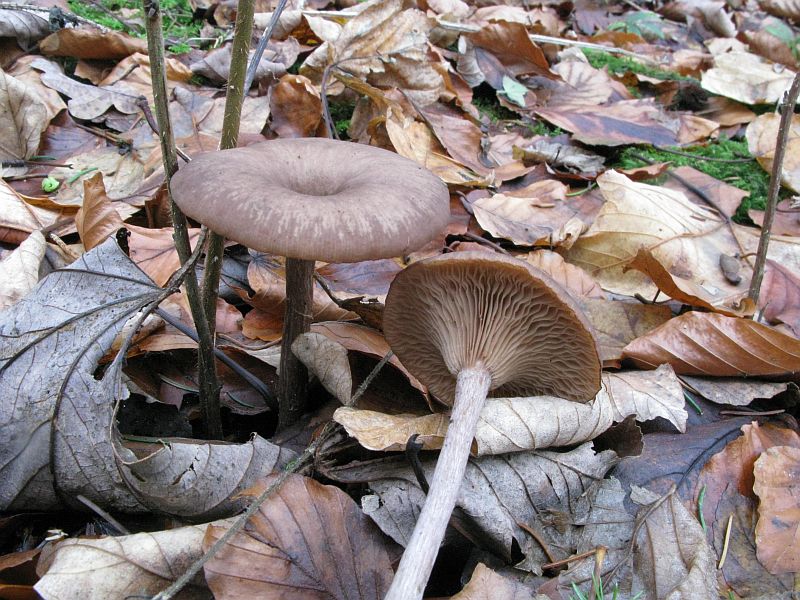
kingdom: Fungi
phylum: Basidiomycota
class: Agaricomycetes
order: Agaricales
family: Pseudoclitocybaceae
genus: Pseudoclitocybe
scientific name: Pseudoclitocybe cyathiformis
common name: almindelig bægertragthat
